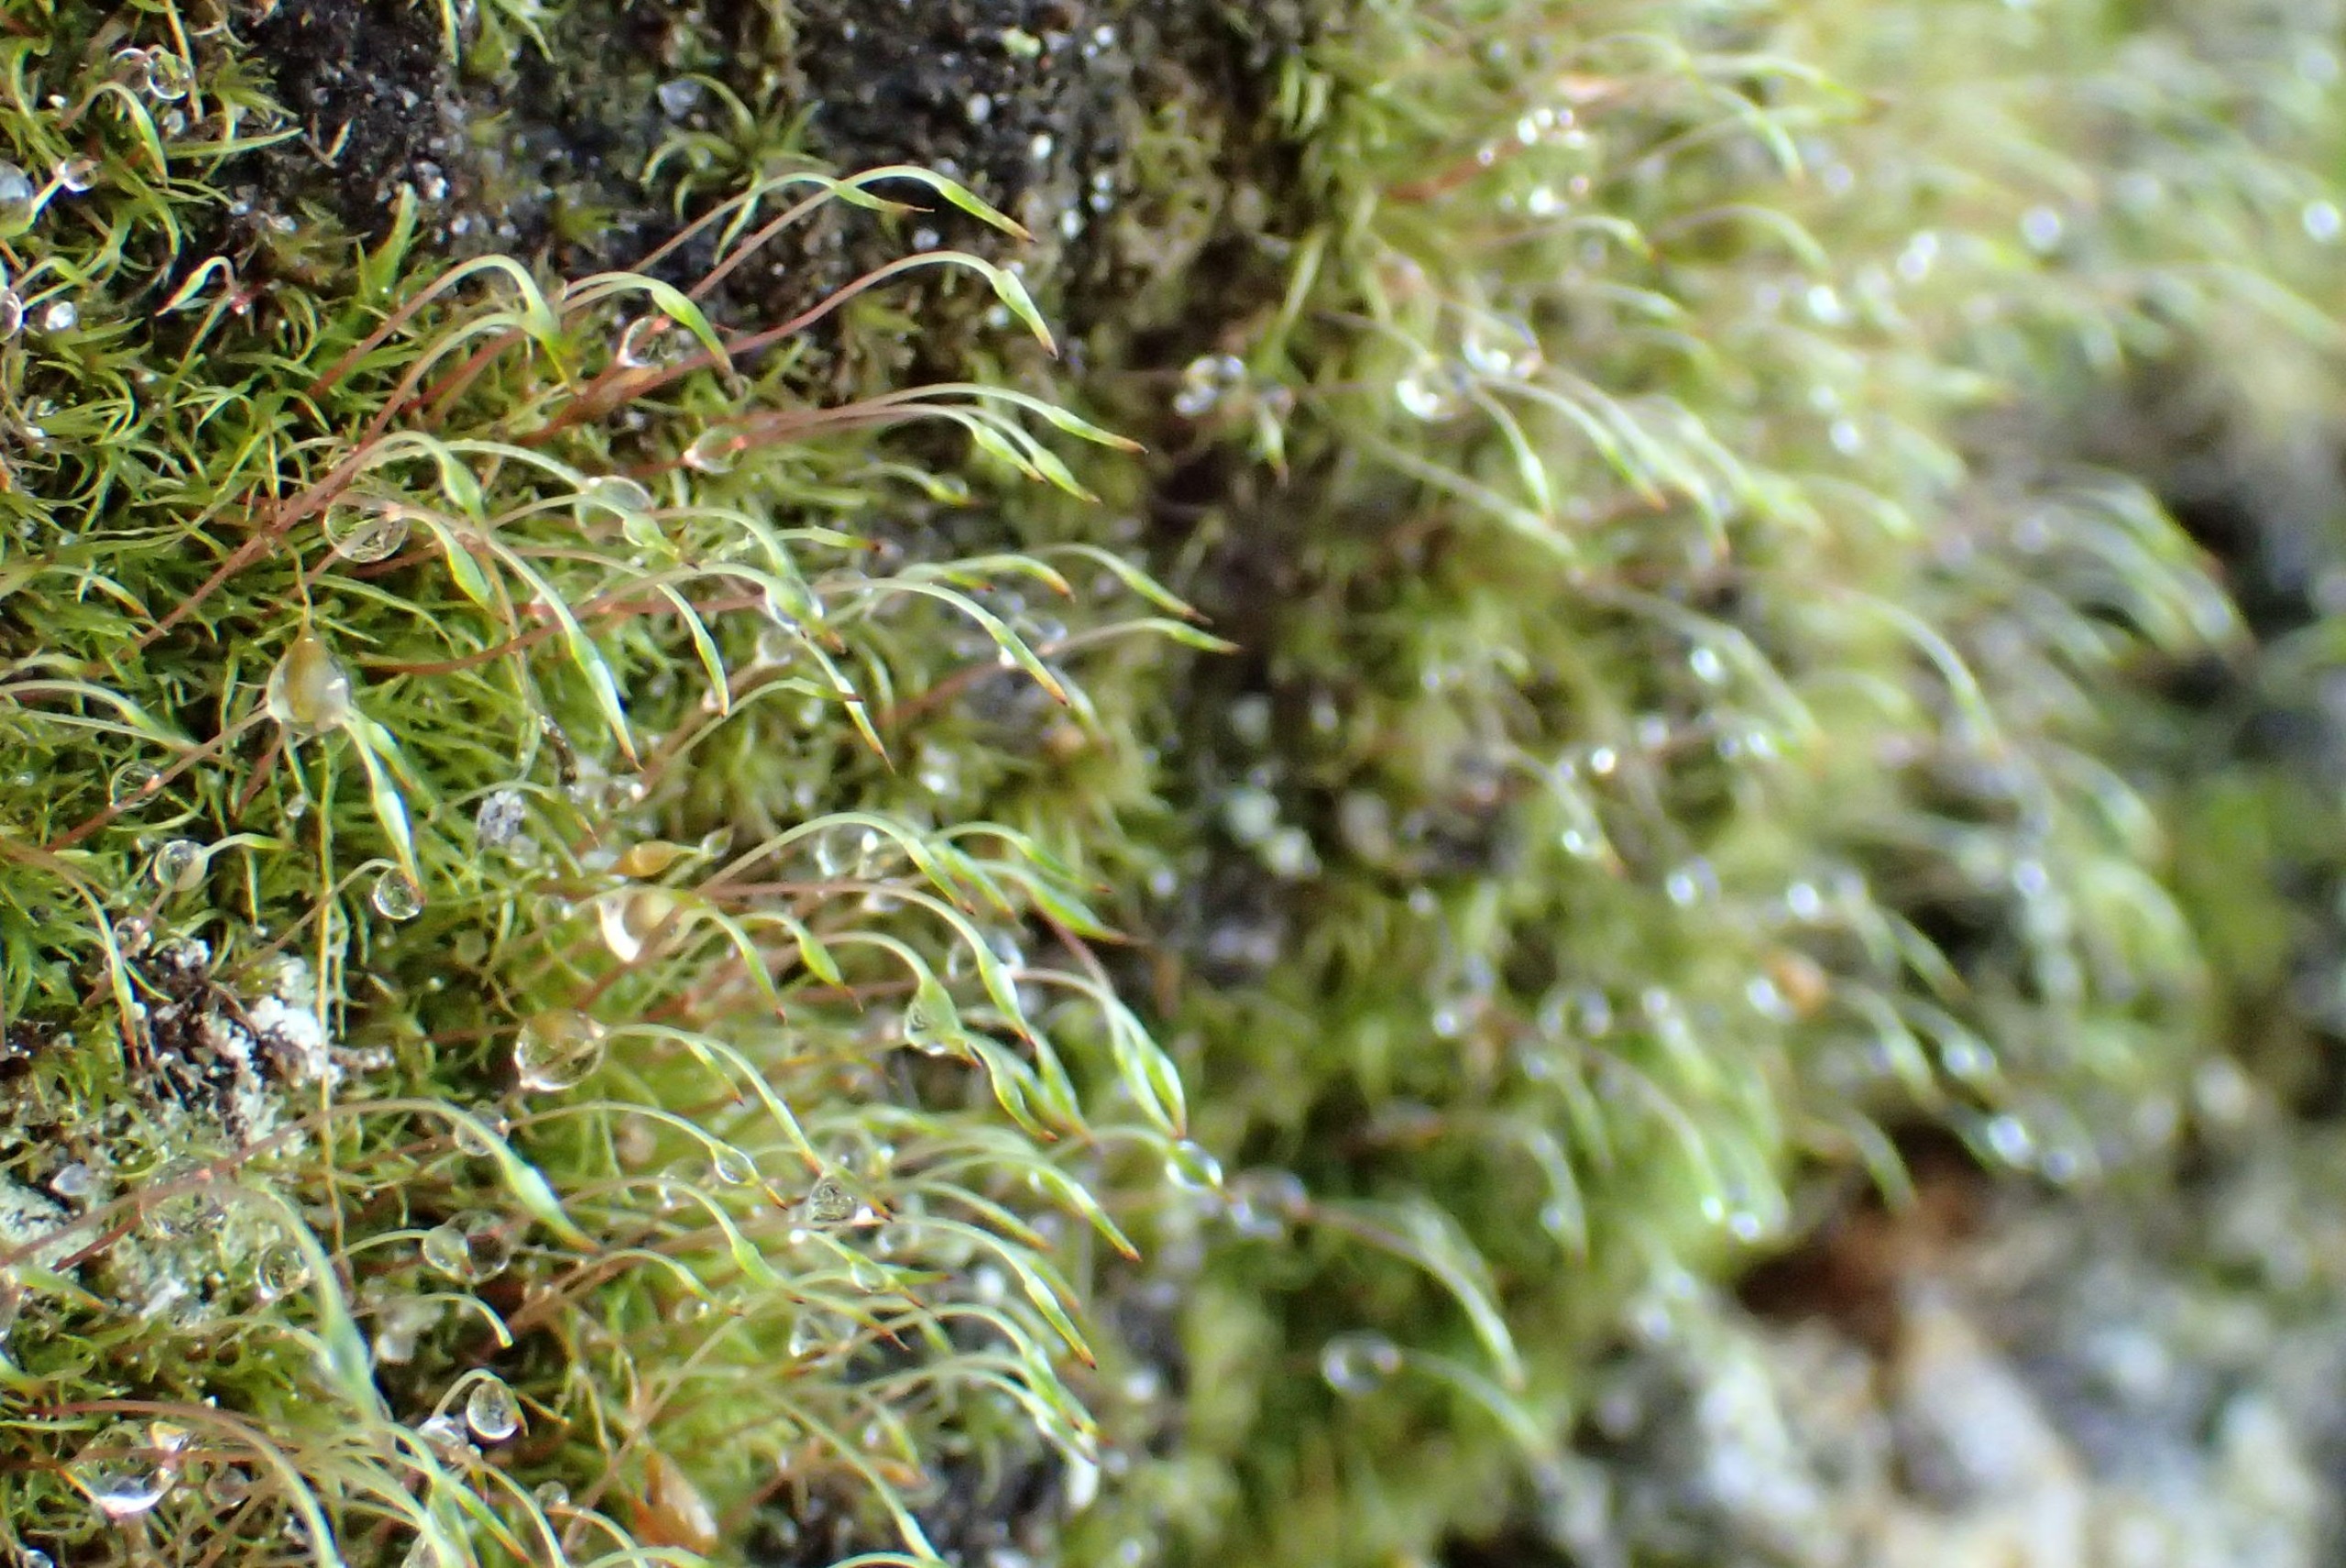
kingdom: Plantae
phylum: Bryophyta
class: Bryopsida
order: Orthodontiales
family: Orthodontiaceae
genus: Orthodontium
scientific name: Orthodontium lineare
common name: Smalbladet plysmos
